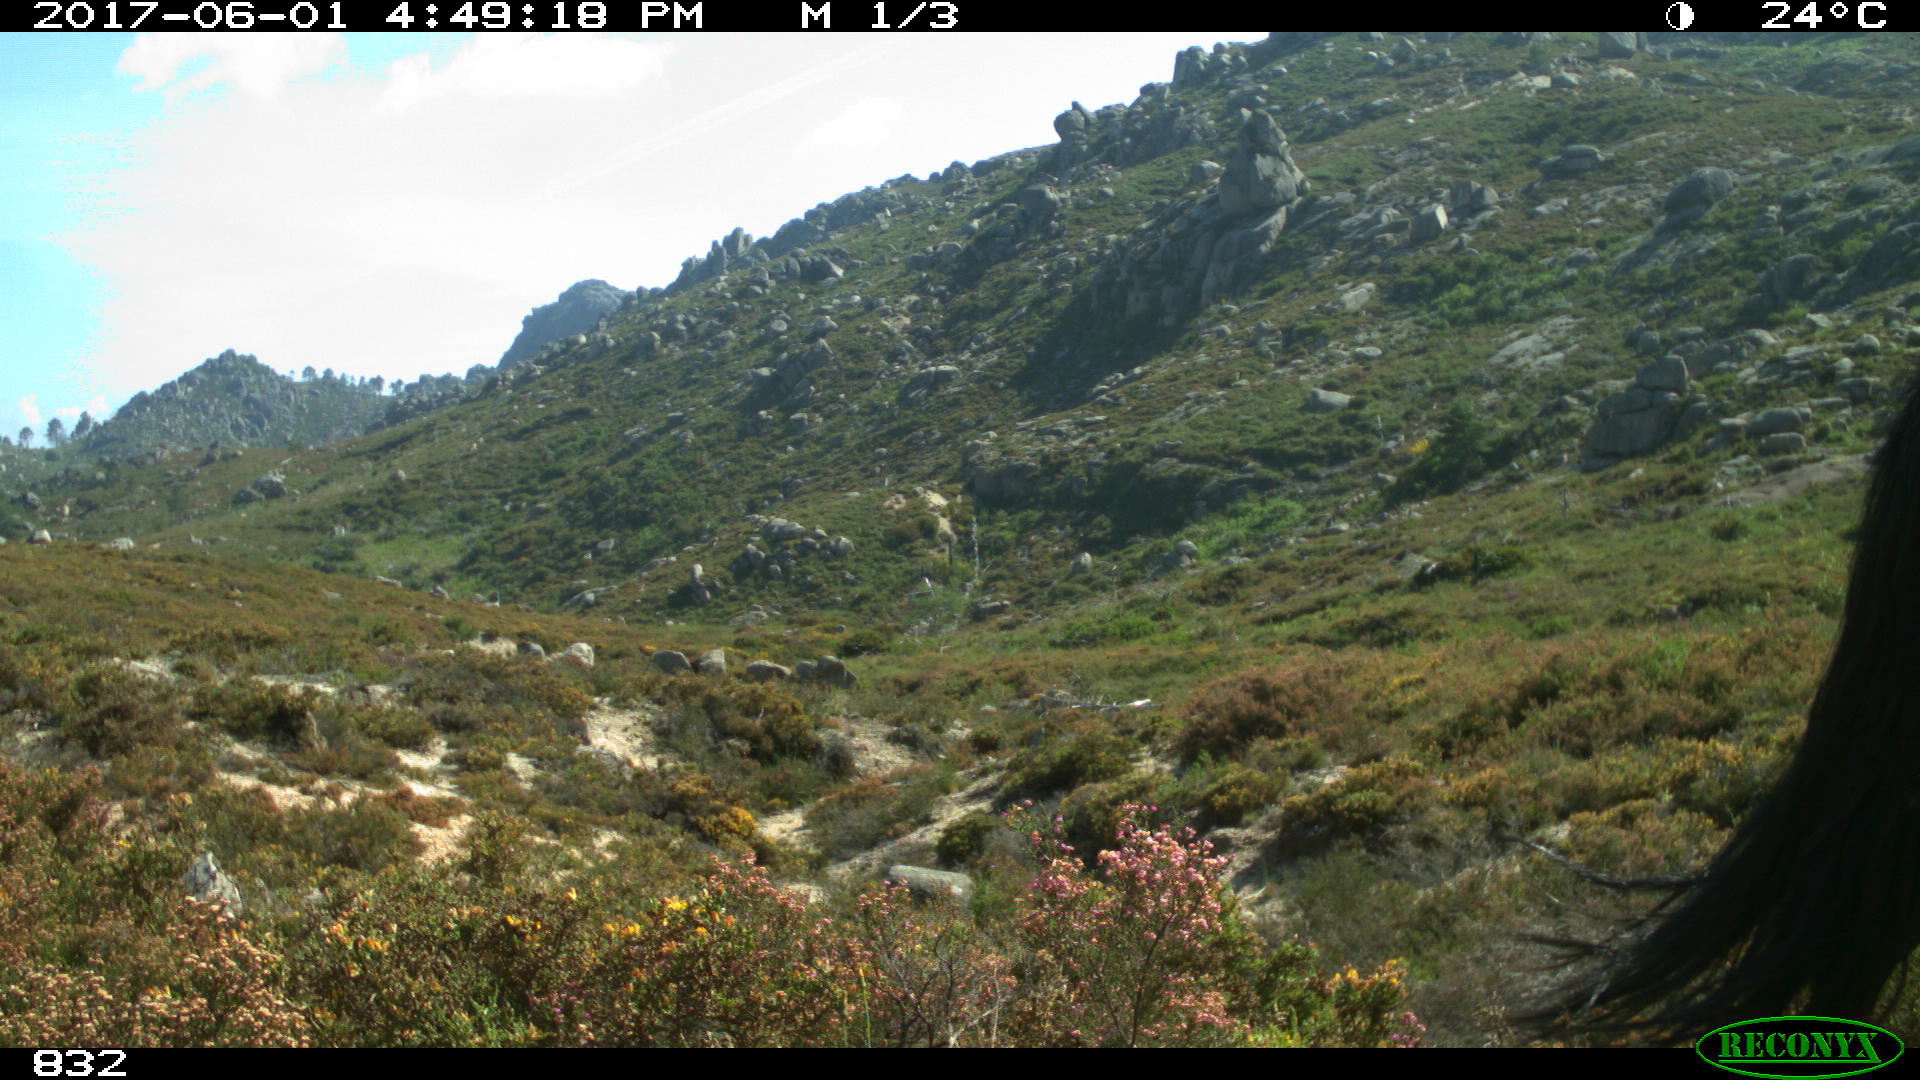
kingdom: Animalia
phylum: Chordata
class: Mammalia
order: Perissodactyla
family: Equidae
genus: Equus
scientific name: Equus caballus
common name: Horse
